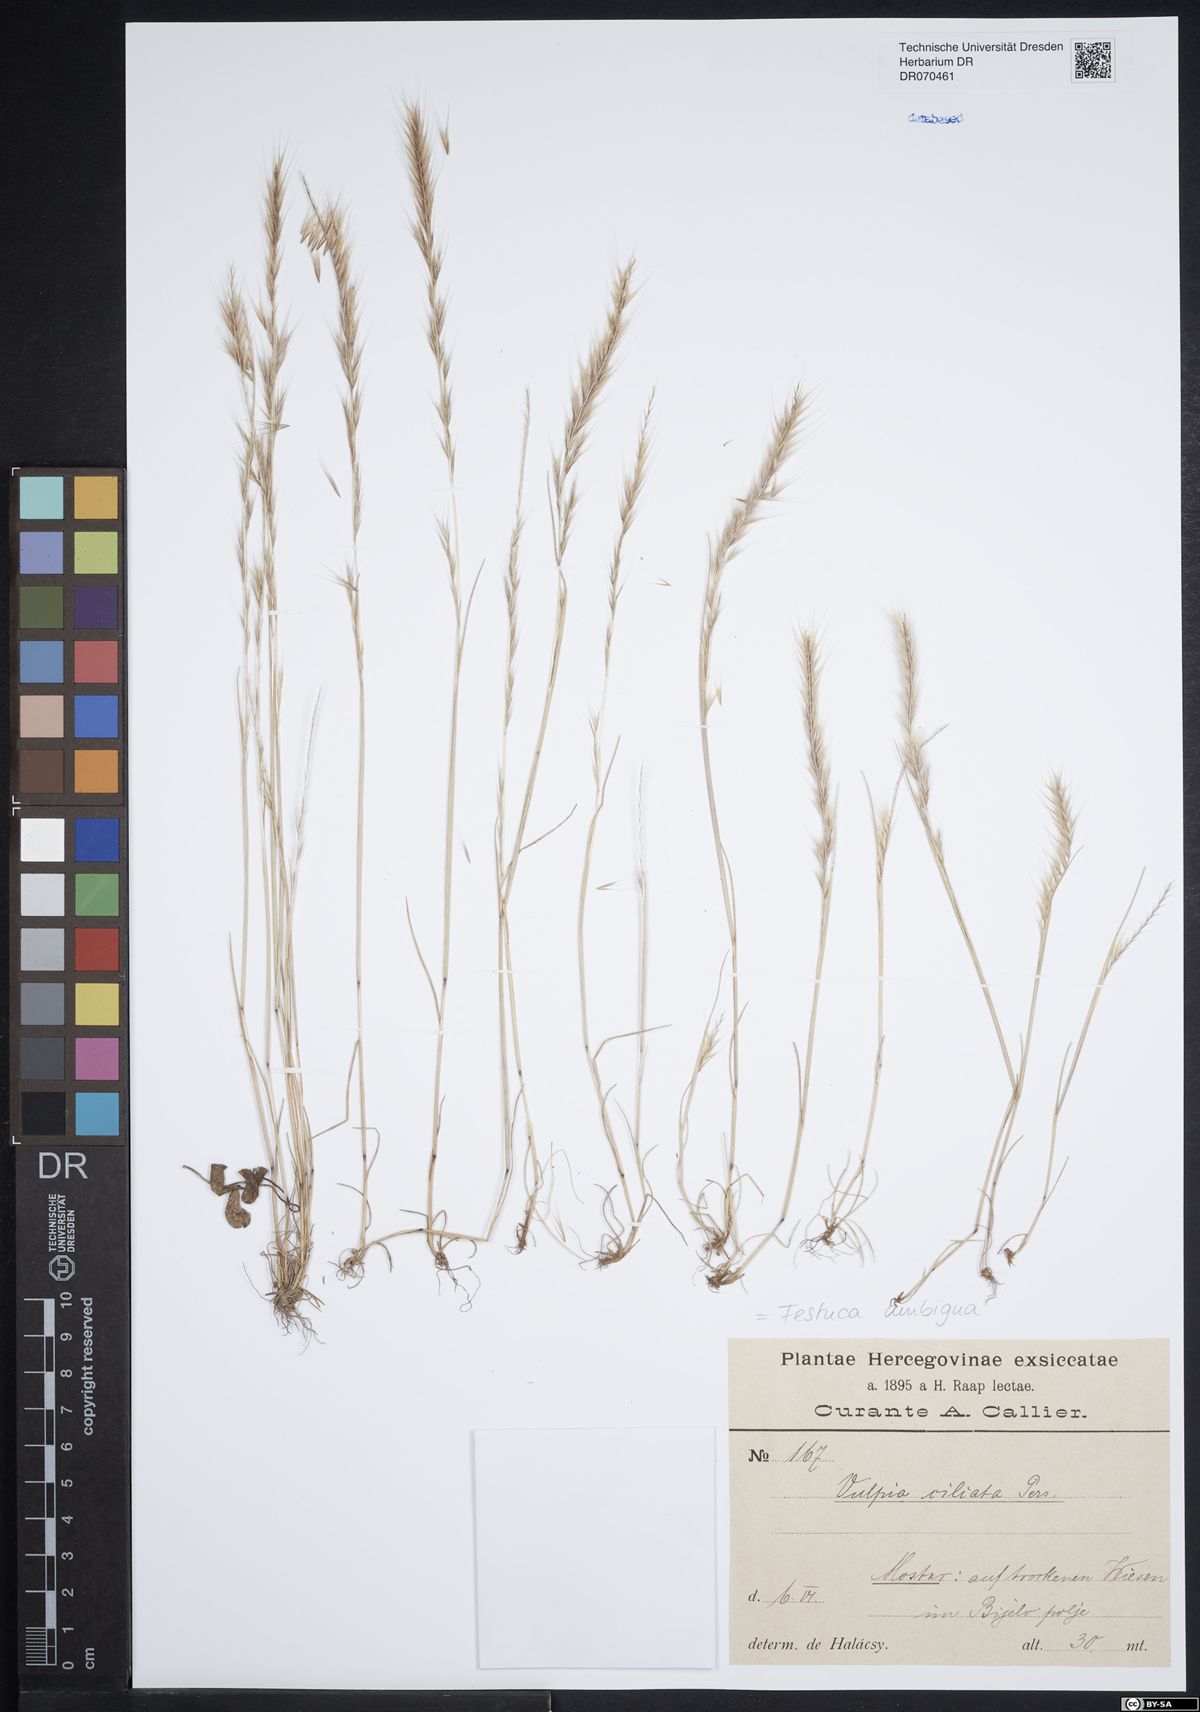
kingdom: Plantae
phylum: Tracheophyta
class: Liliopsida
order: Poales
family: Poaceae
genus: Festuca
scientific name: Festuca ambigua
